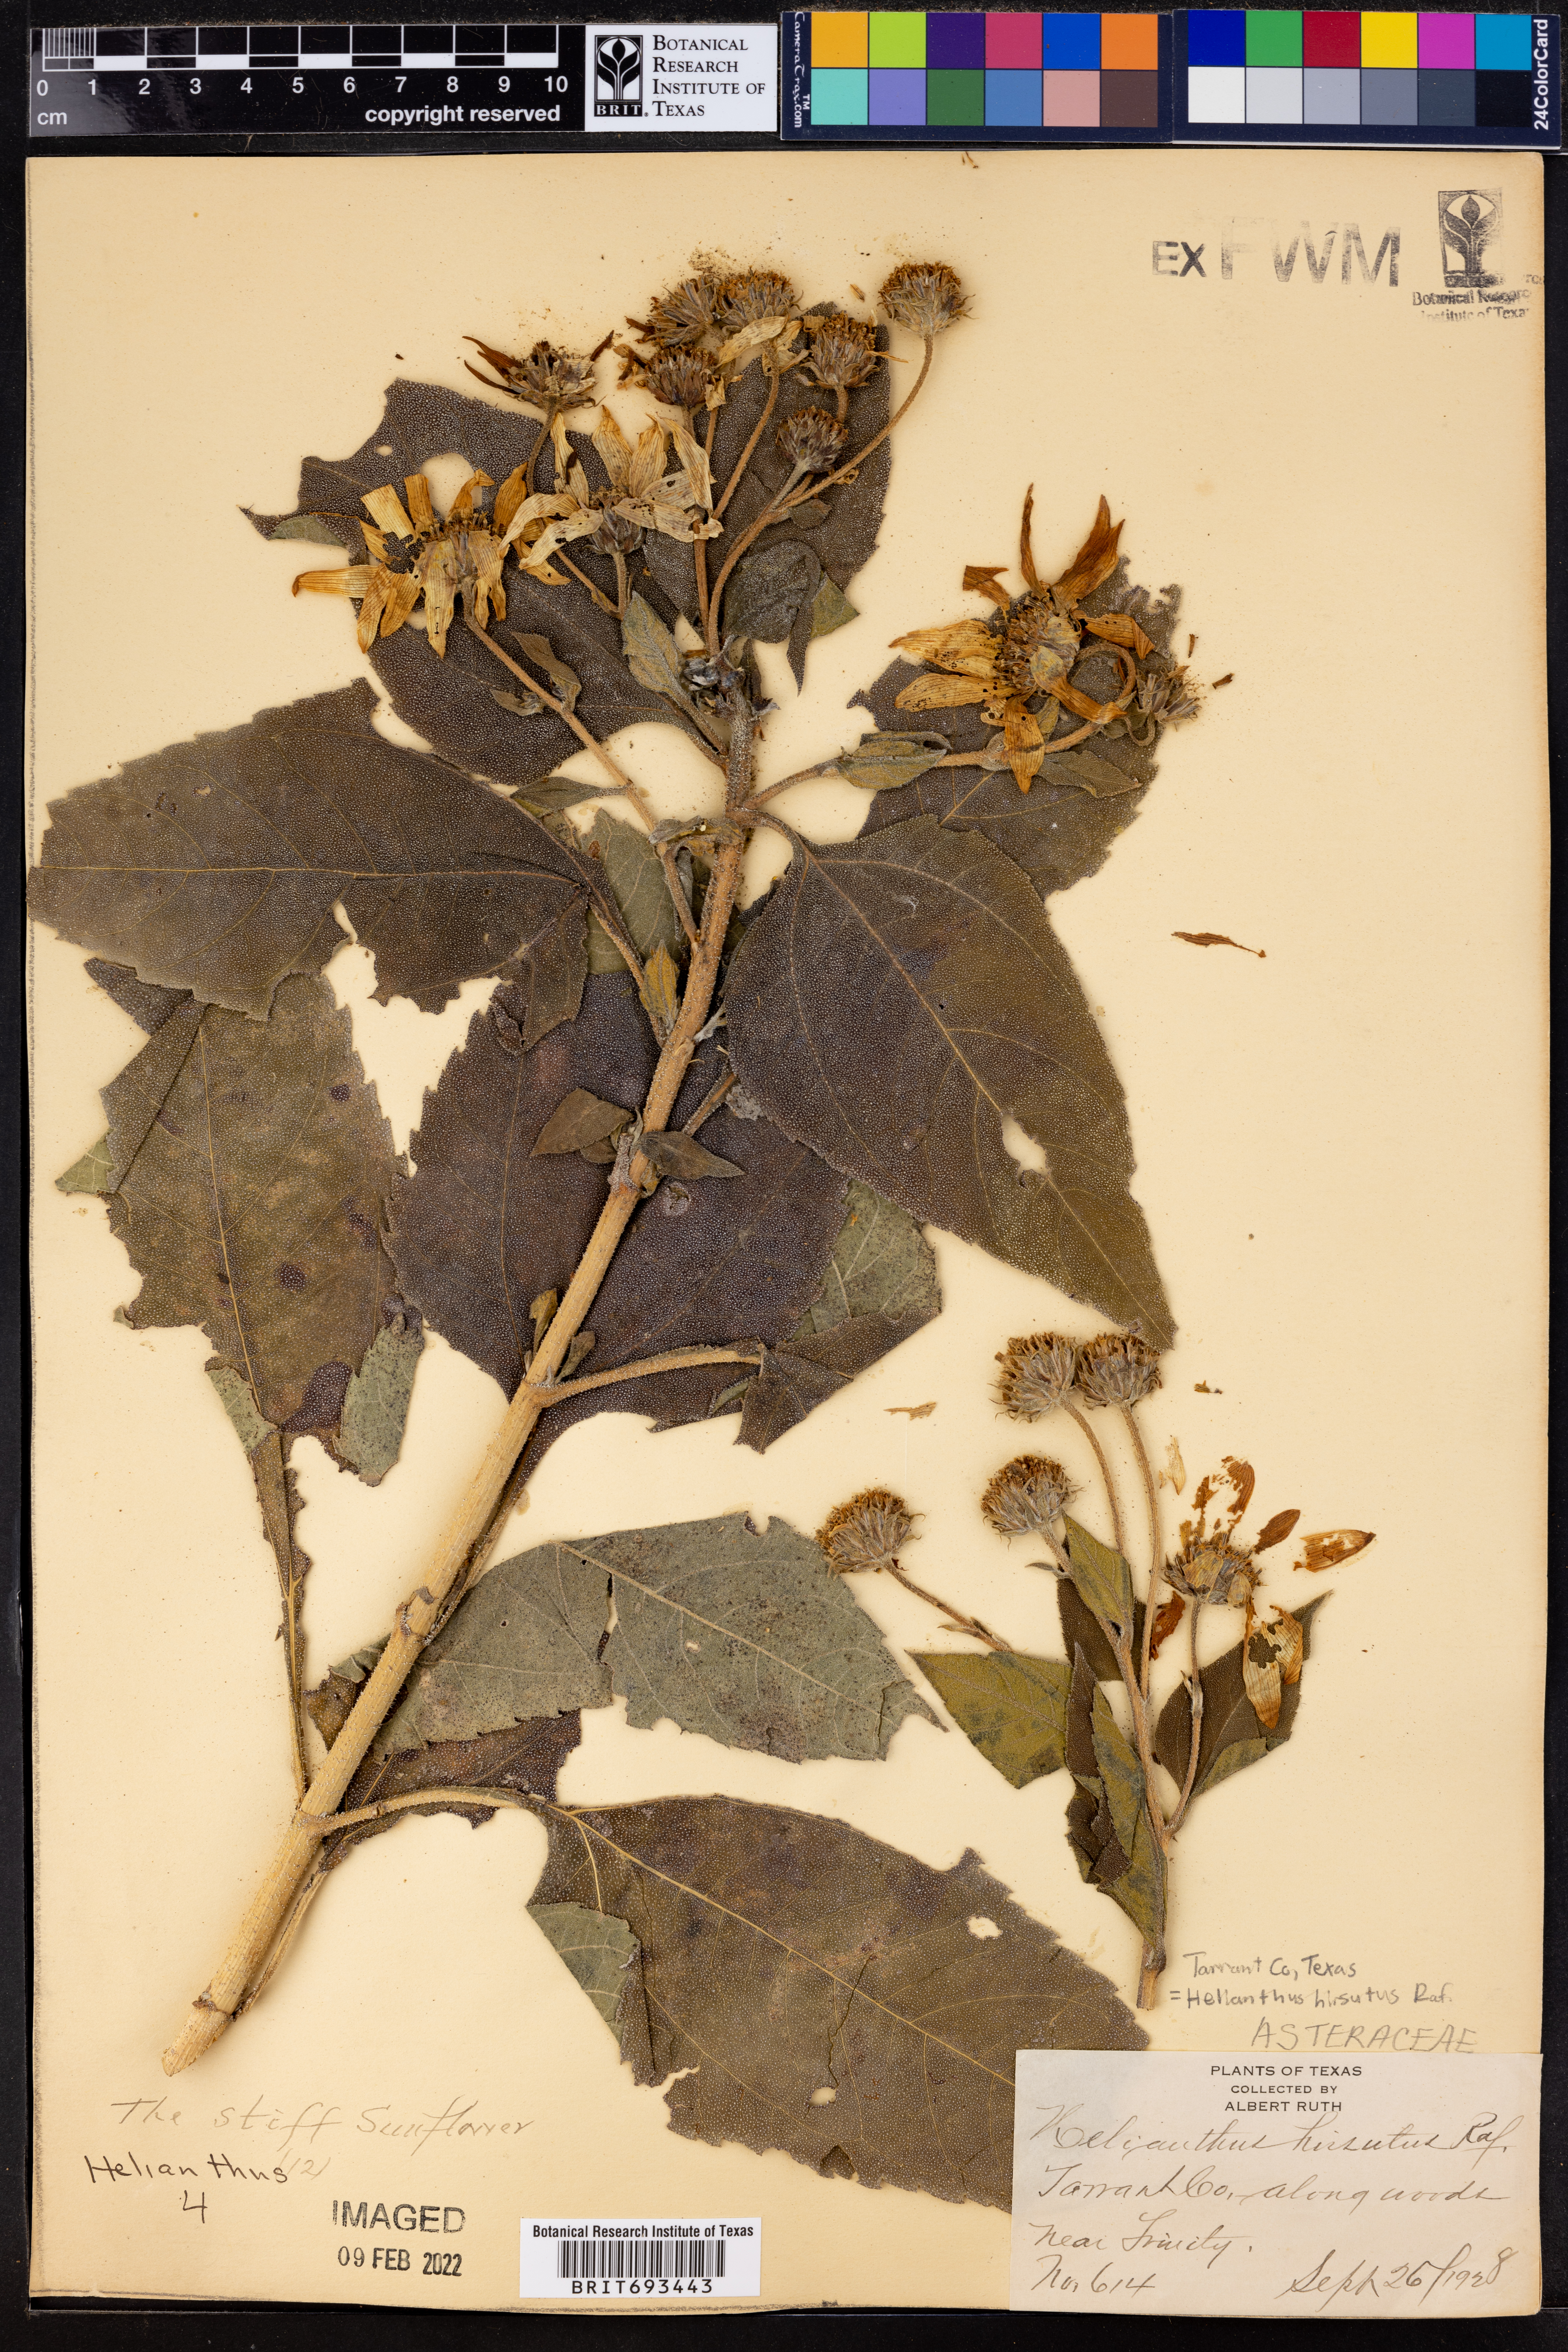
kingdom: Plantae
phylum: Tracheophyta
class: Magnoliopsida
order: Asterales
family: Asteraceae
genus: Helianthus
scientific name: Helianthus hirsutus
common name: Hairy sunflower
